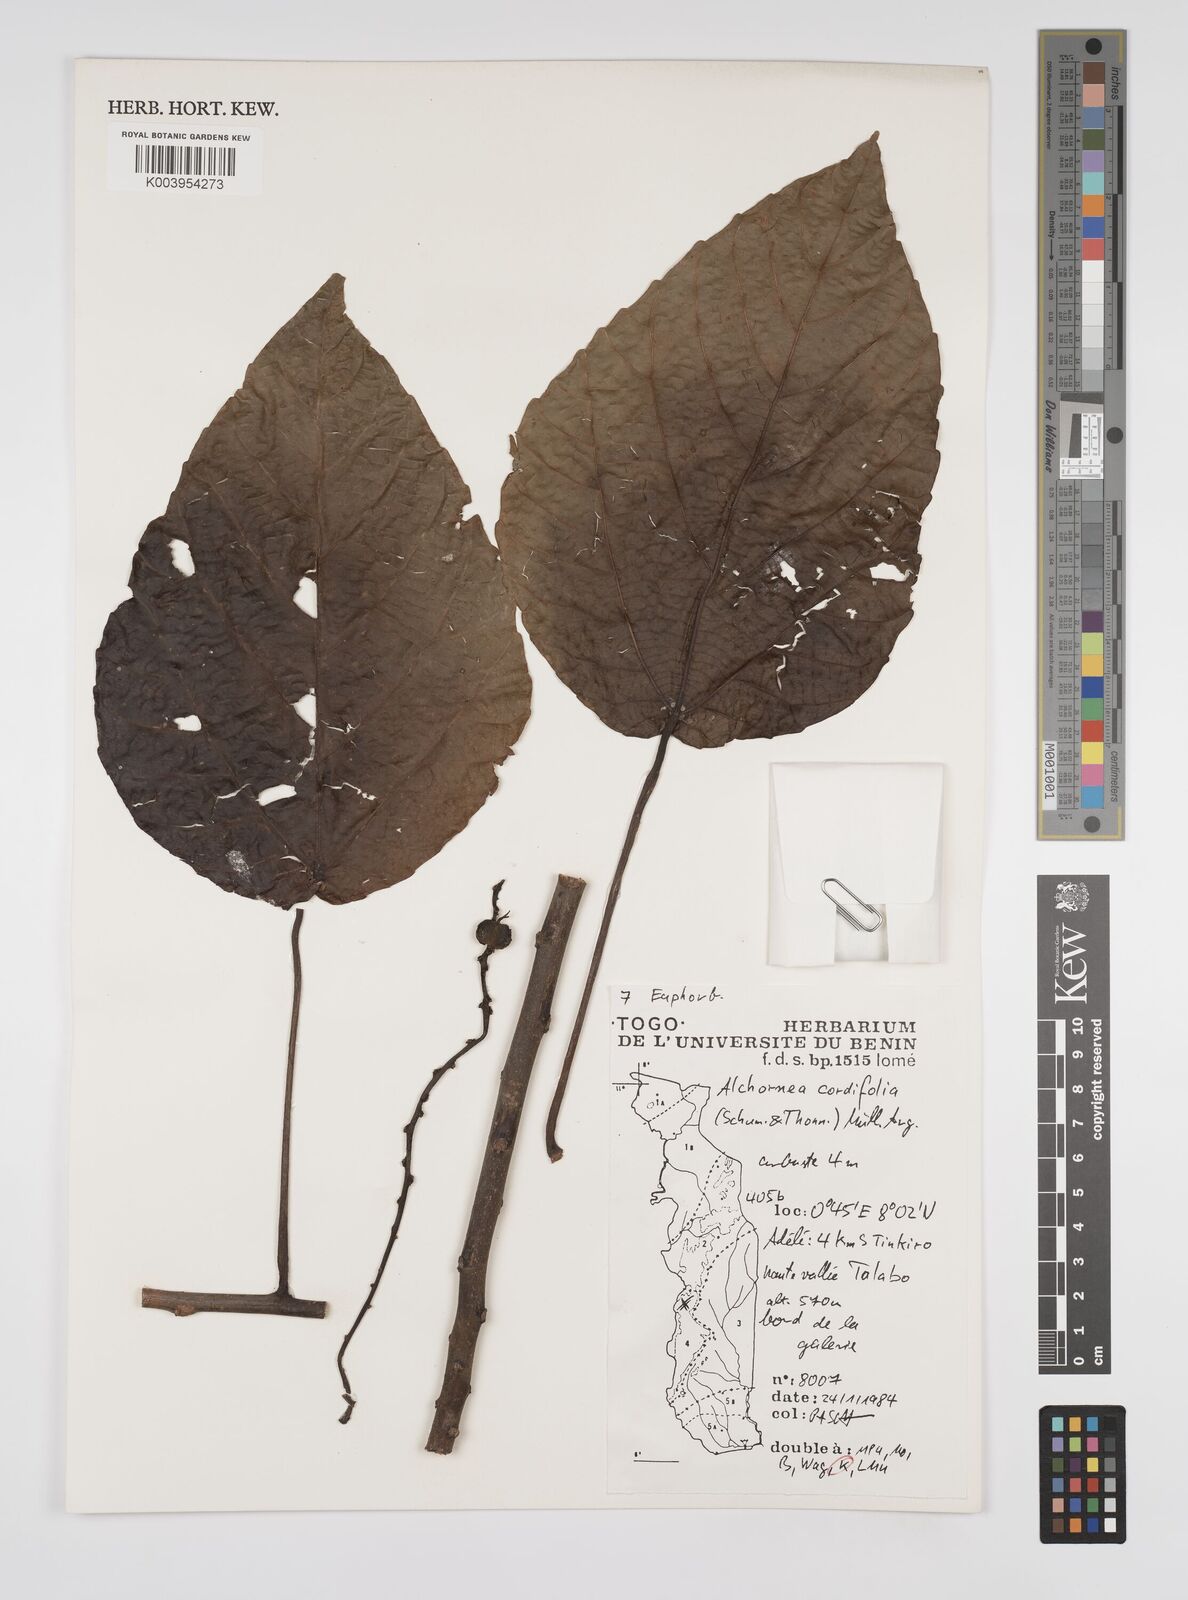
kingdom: Plantae
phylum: Tracheophyta
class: Magnoliopsida
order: Malpighiales
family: Euphorbiaceae
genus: Alchornea
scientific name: Alchornea cordifolia
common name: Christmasbush
